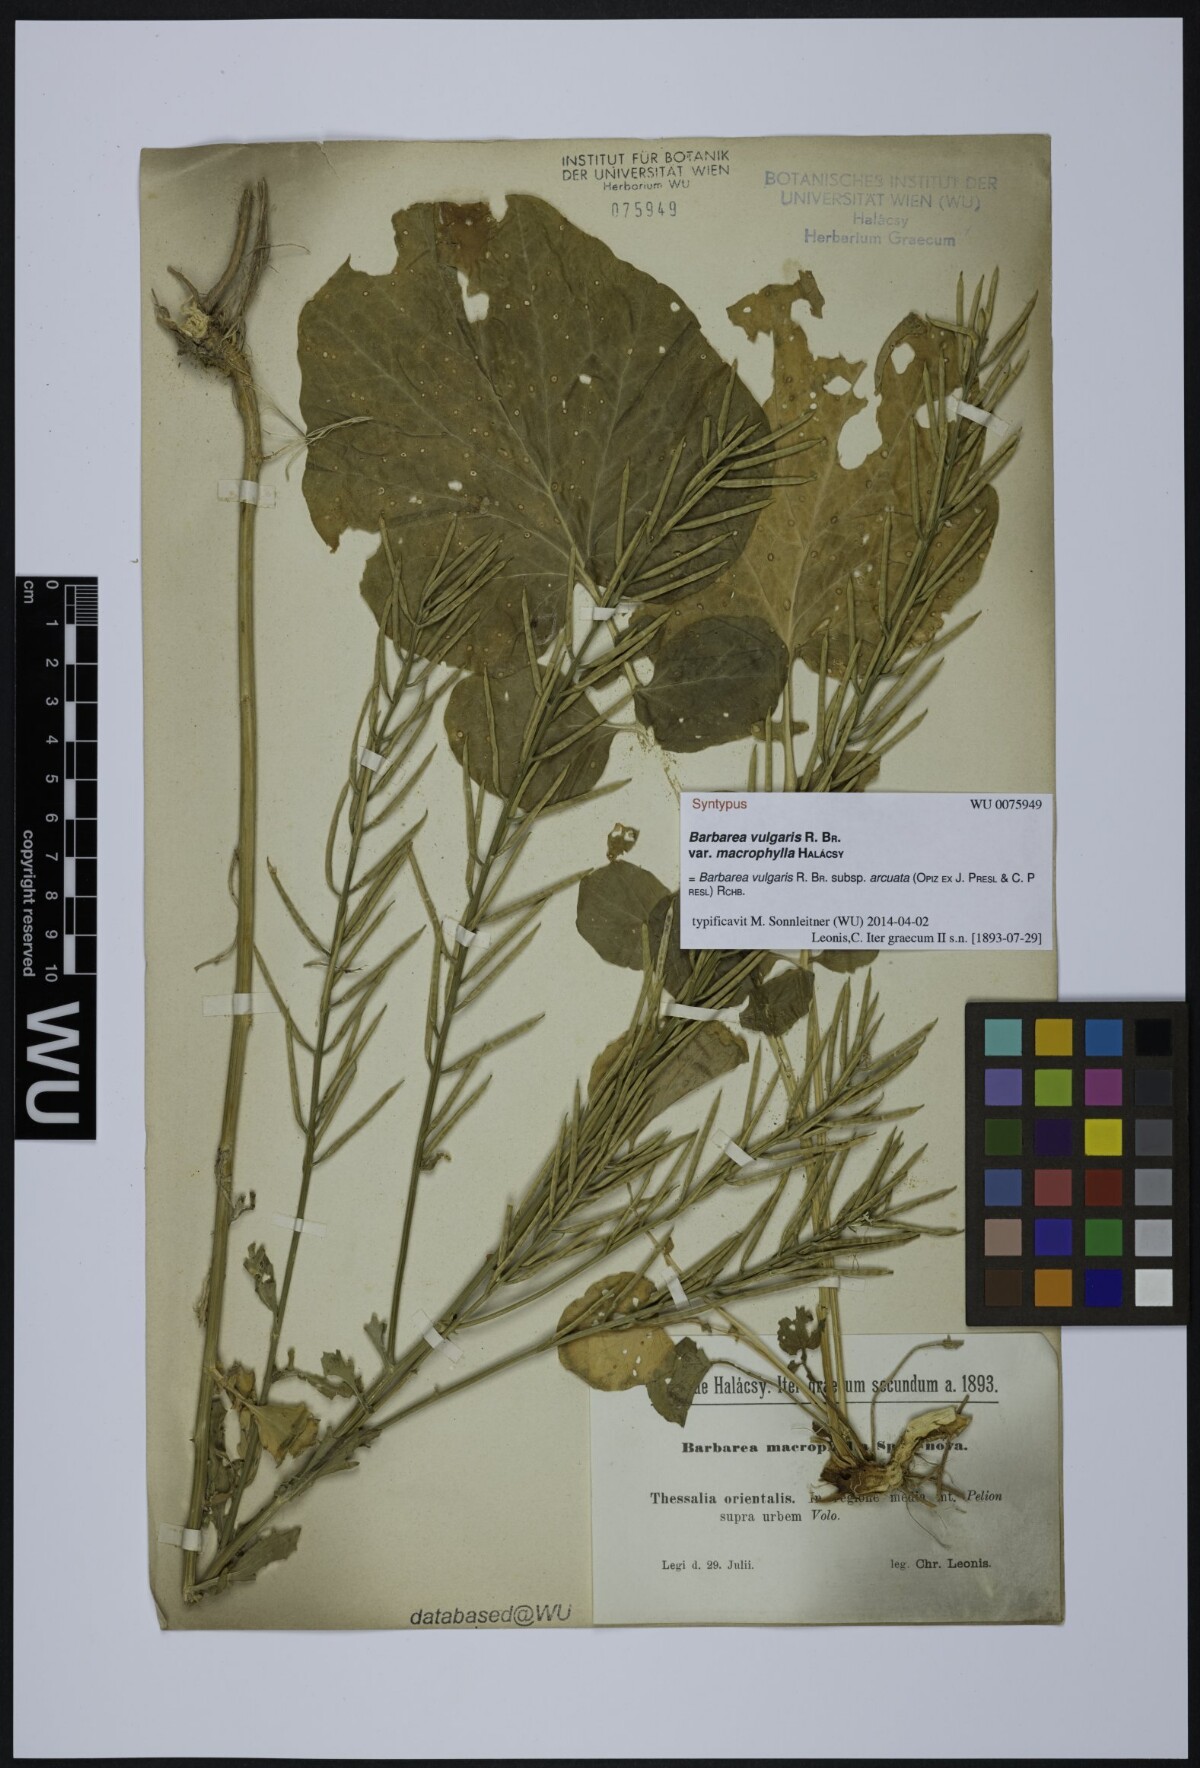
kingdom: Plantae
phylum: Tracheophyta
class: Magnoliopsida
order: Brassicales
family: Brassicaceae
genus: Barbarea
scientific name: Barbarea vulgaris
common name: Cressy-greens
